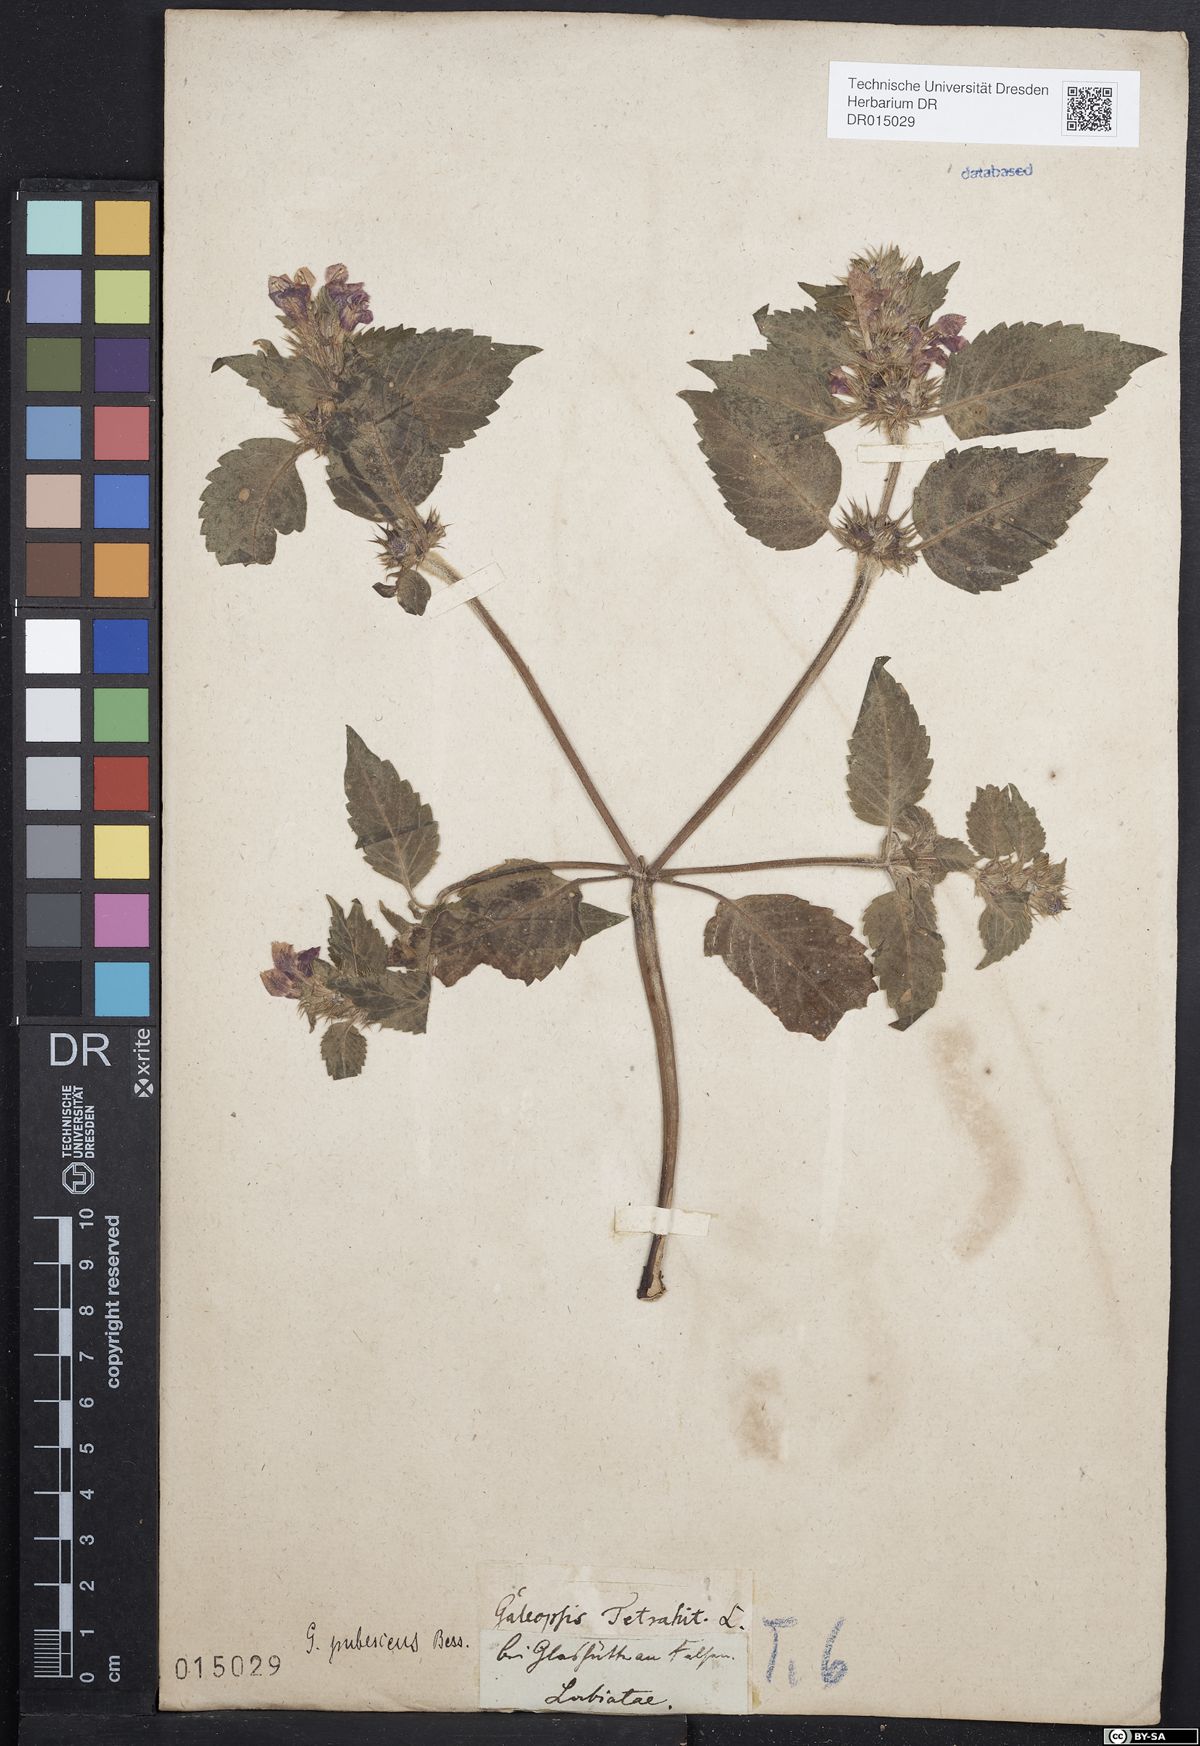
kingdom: Plantae
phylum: Tracheophyta
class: Magnoliopsida
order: Lamiales
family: Lamiaceae
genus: Galeopsis
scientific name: Galeopsis pubescens
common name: Downy hemp-nettle
